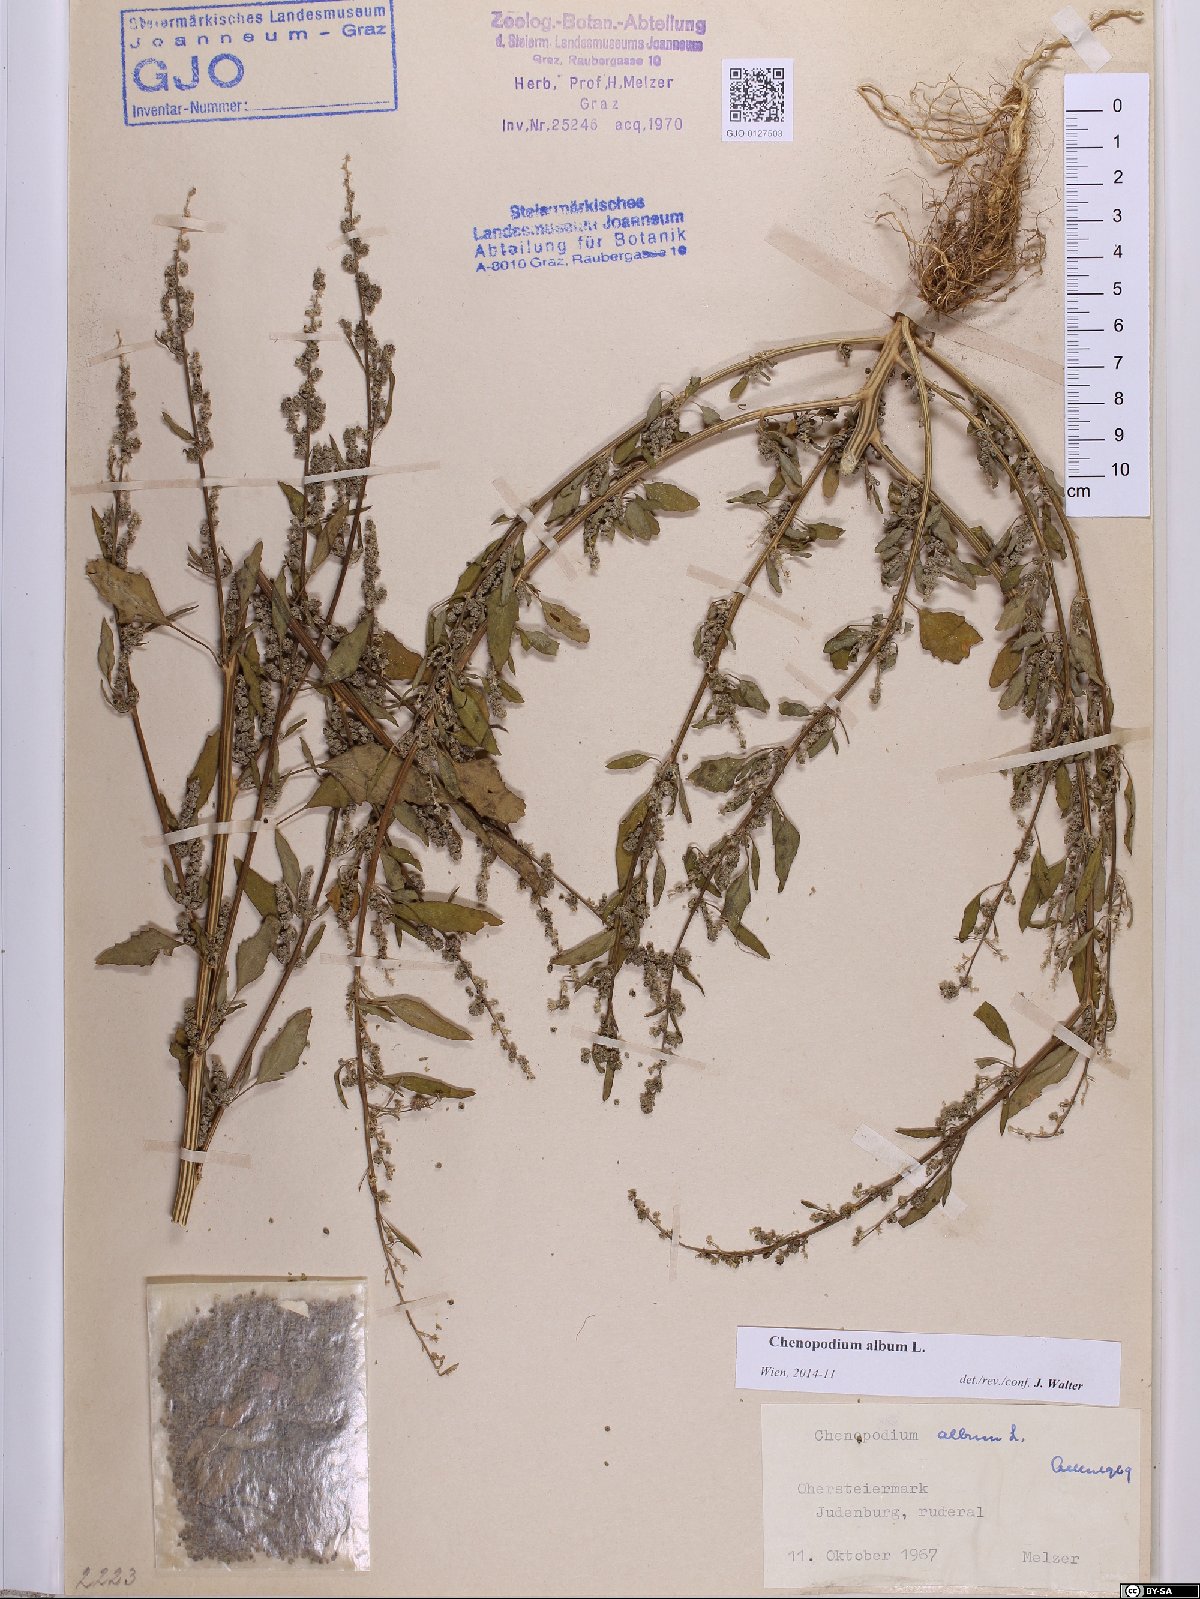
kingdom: Plantae
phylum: Tracheophyta
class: Magnoliopsida
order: Caryophyllales
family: Amaranthaceae
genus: Chenopodium
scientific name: Chenopodium album
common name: Fat-hen
